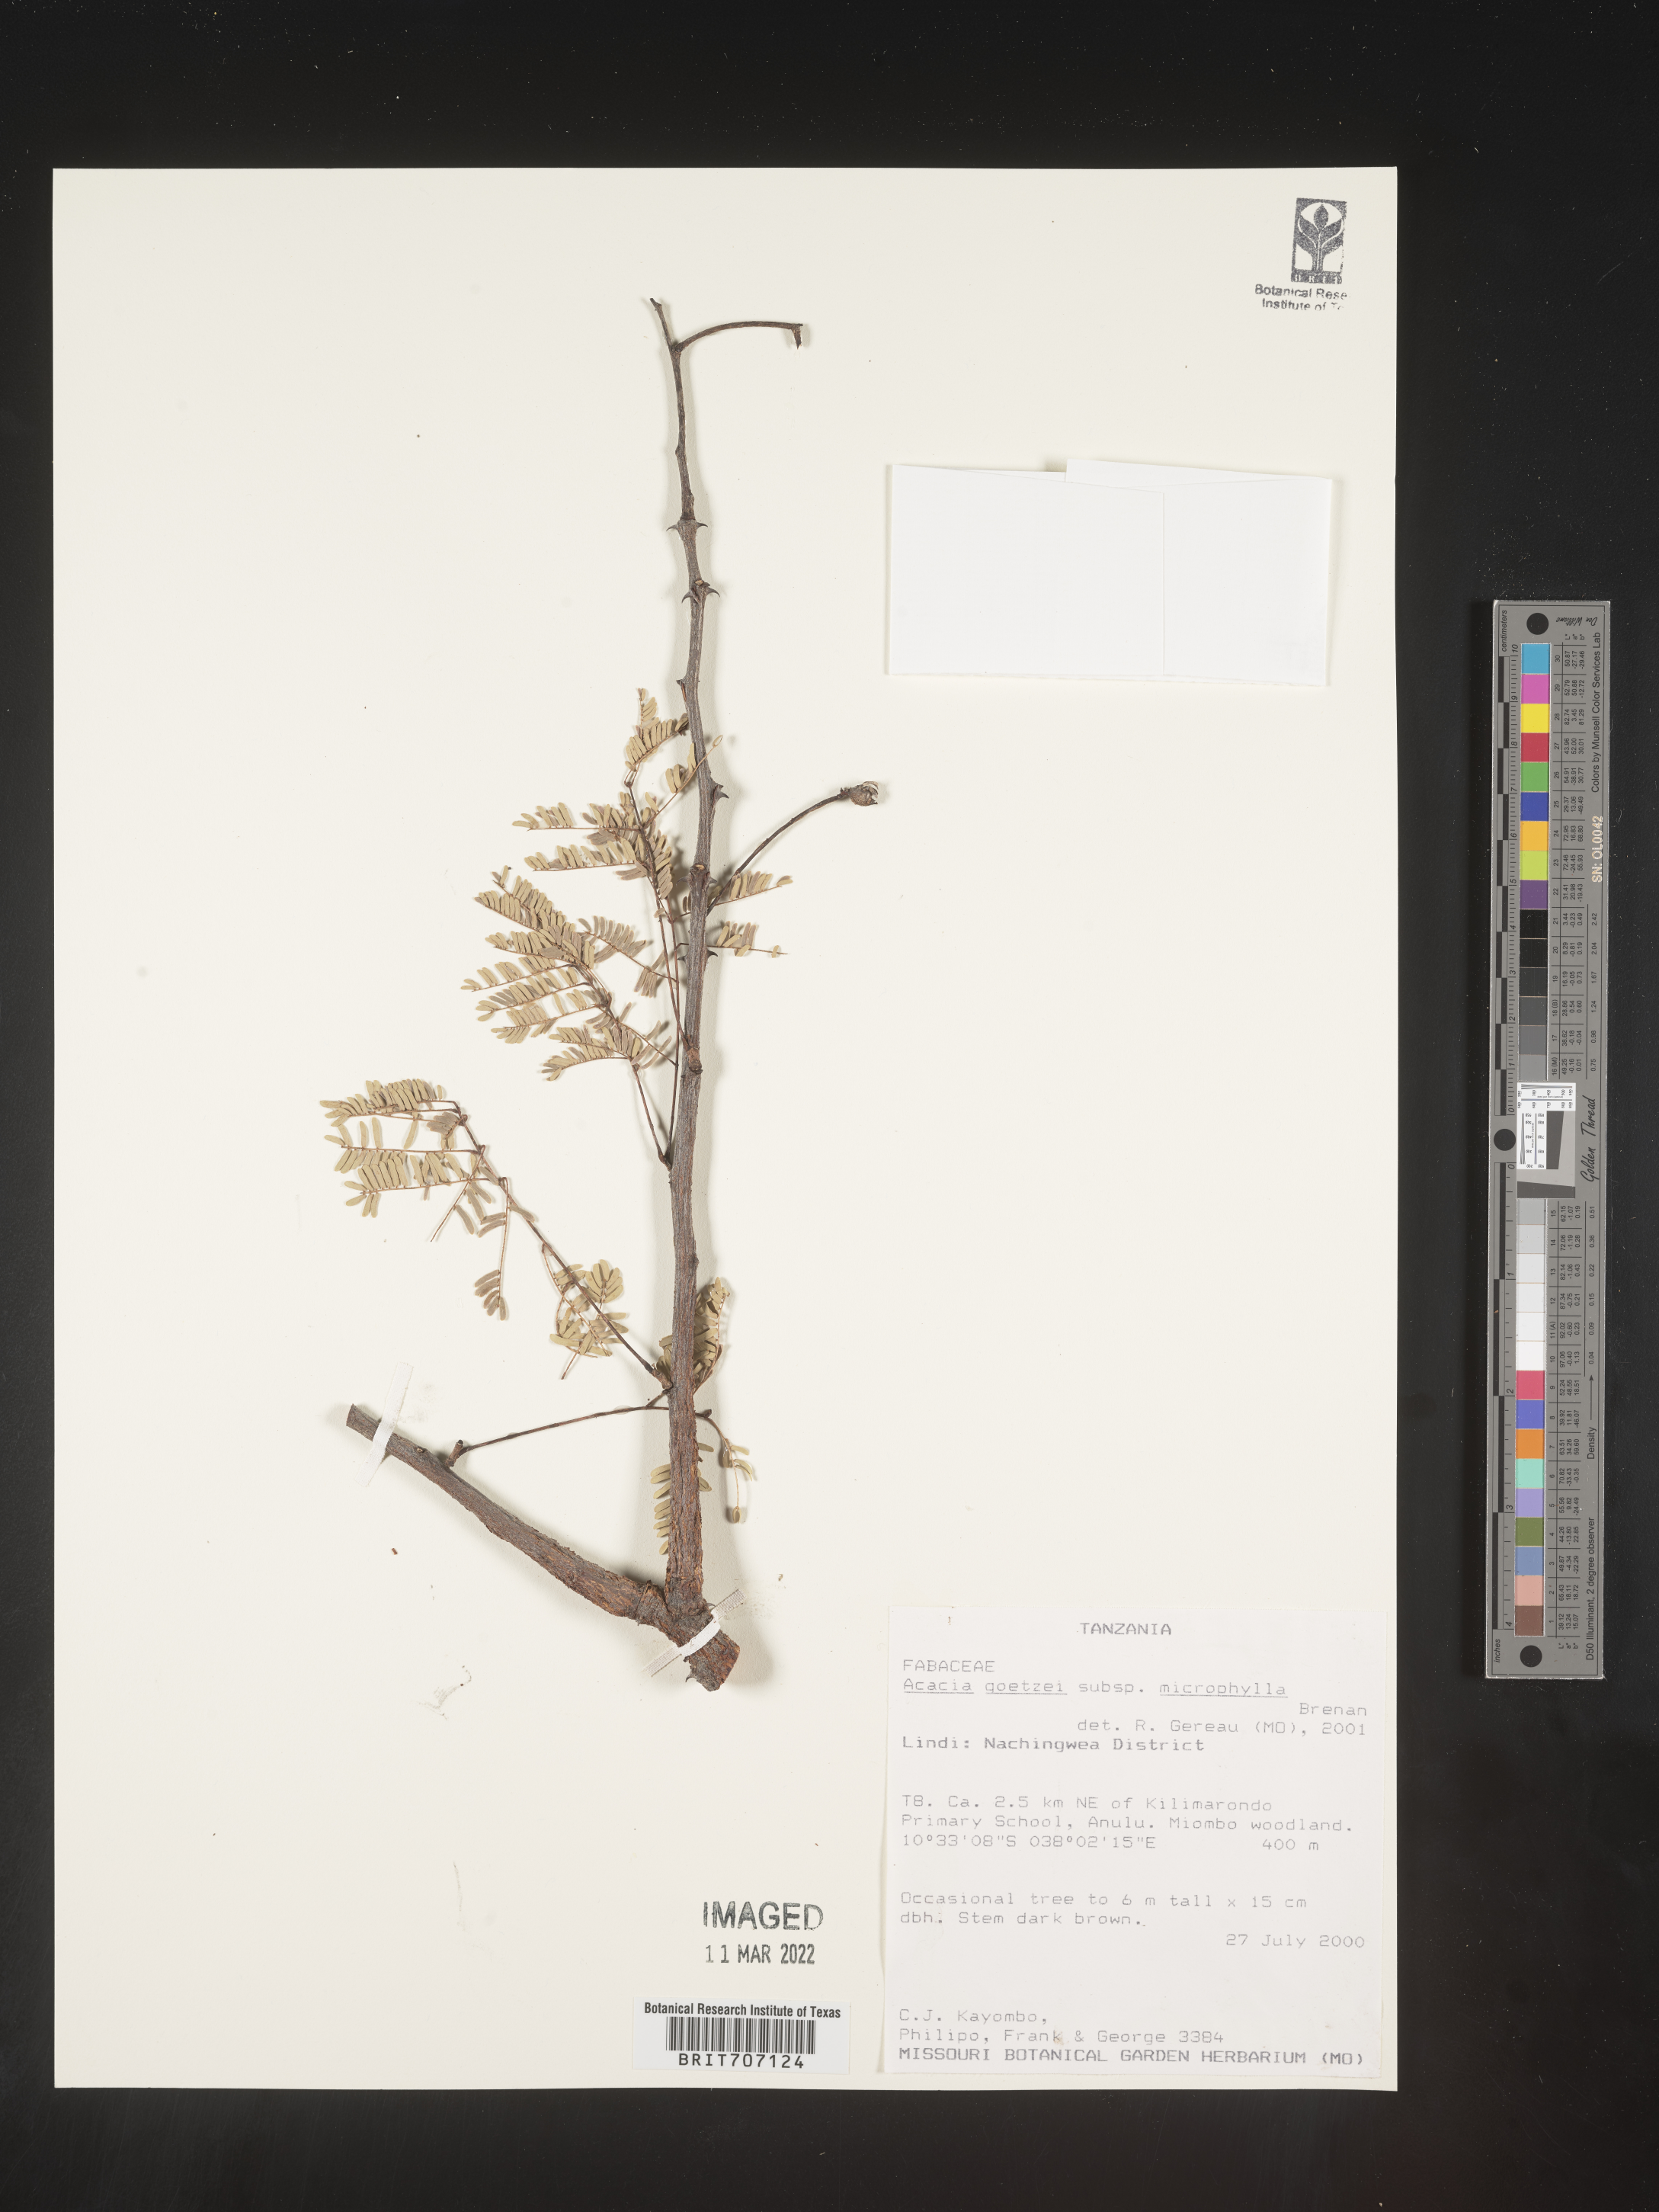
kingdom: Plantae
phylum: Tracheophyta
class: Magnoliopsida
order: Fabales
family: Fabaceae
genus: Acacia
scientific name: Acacia
